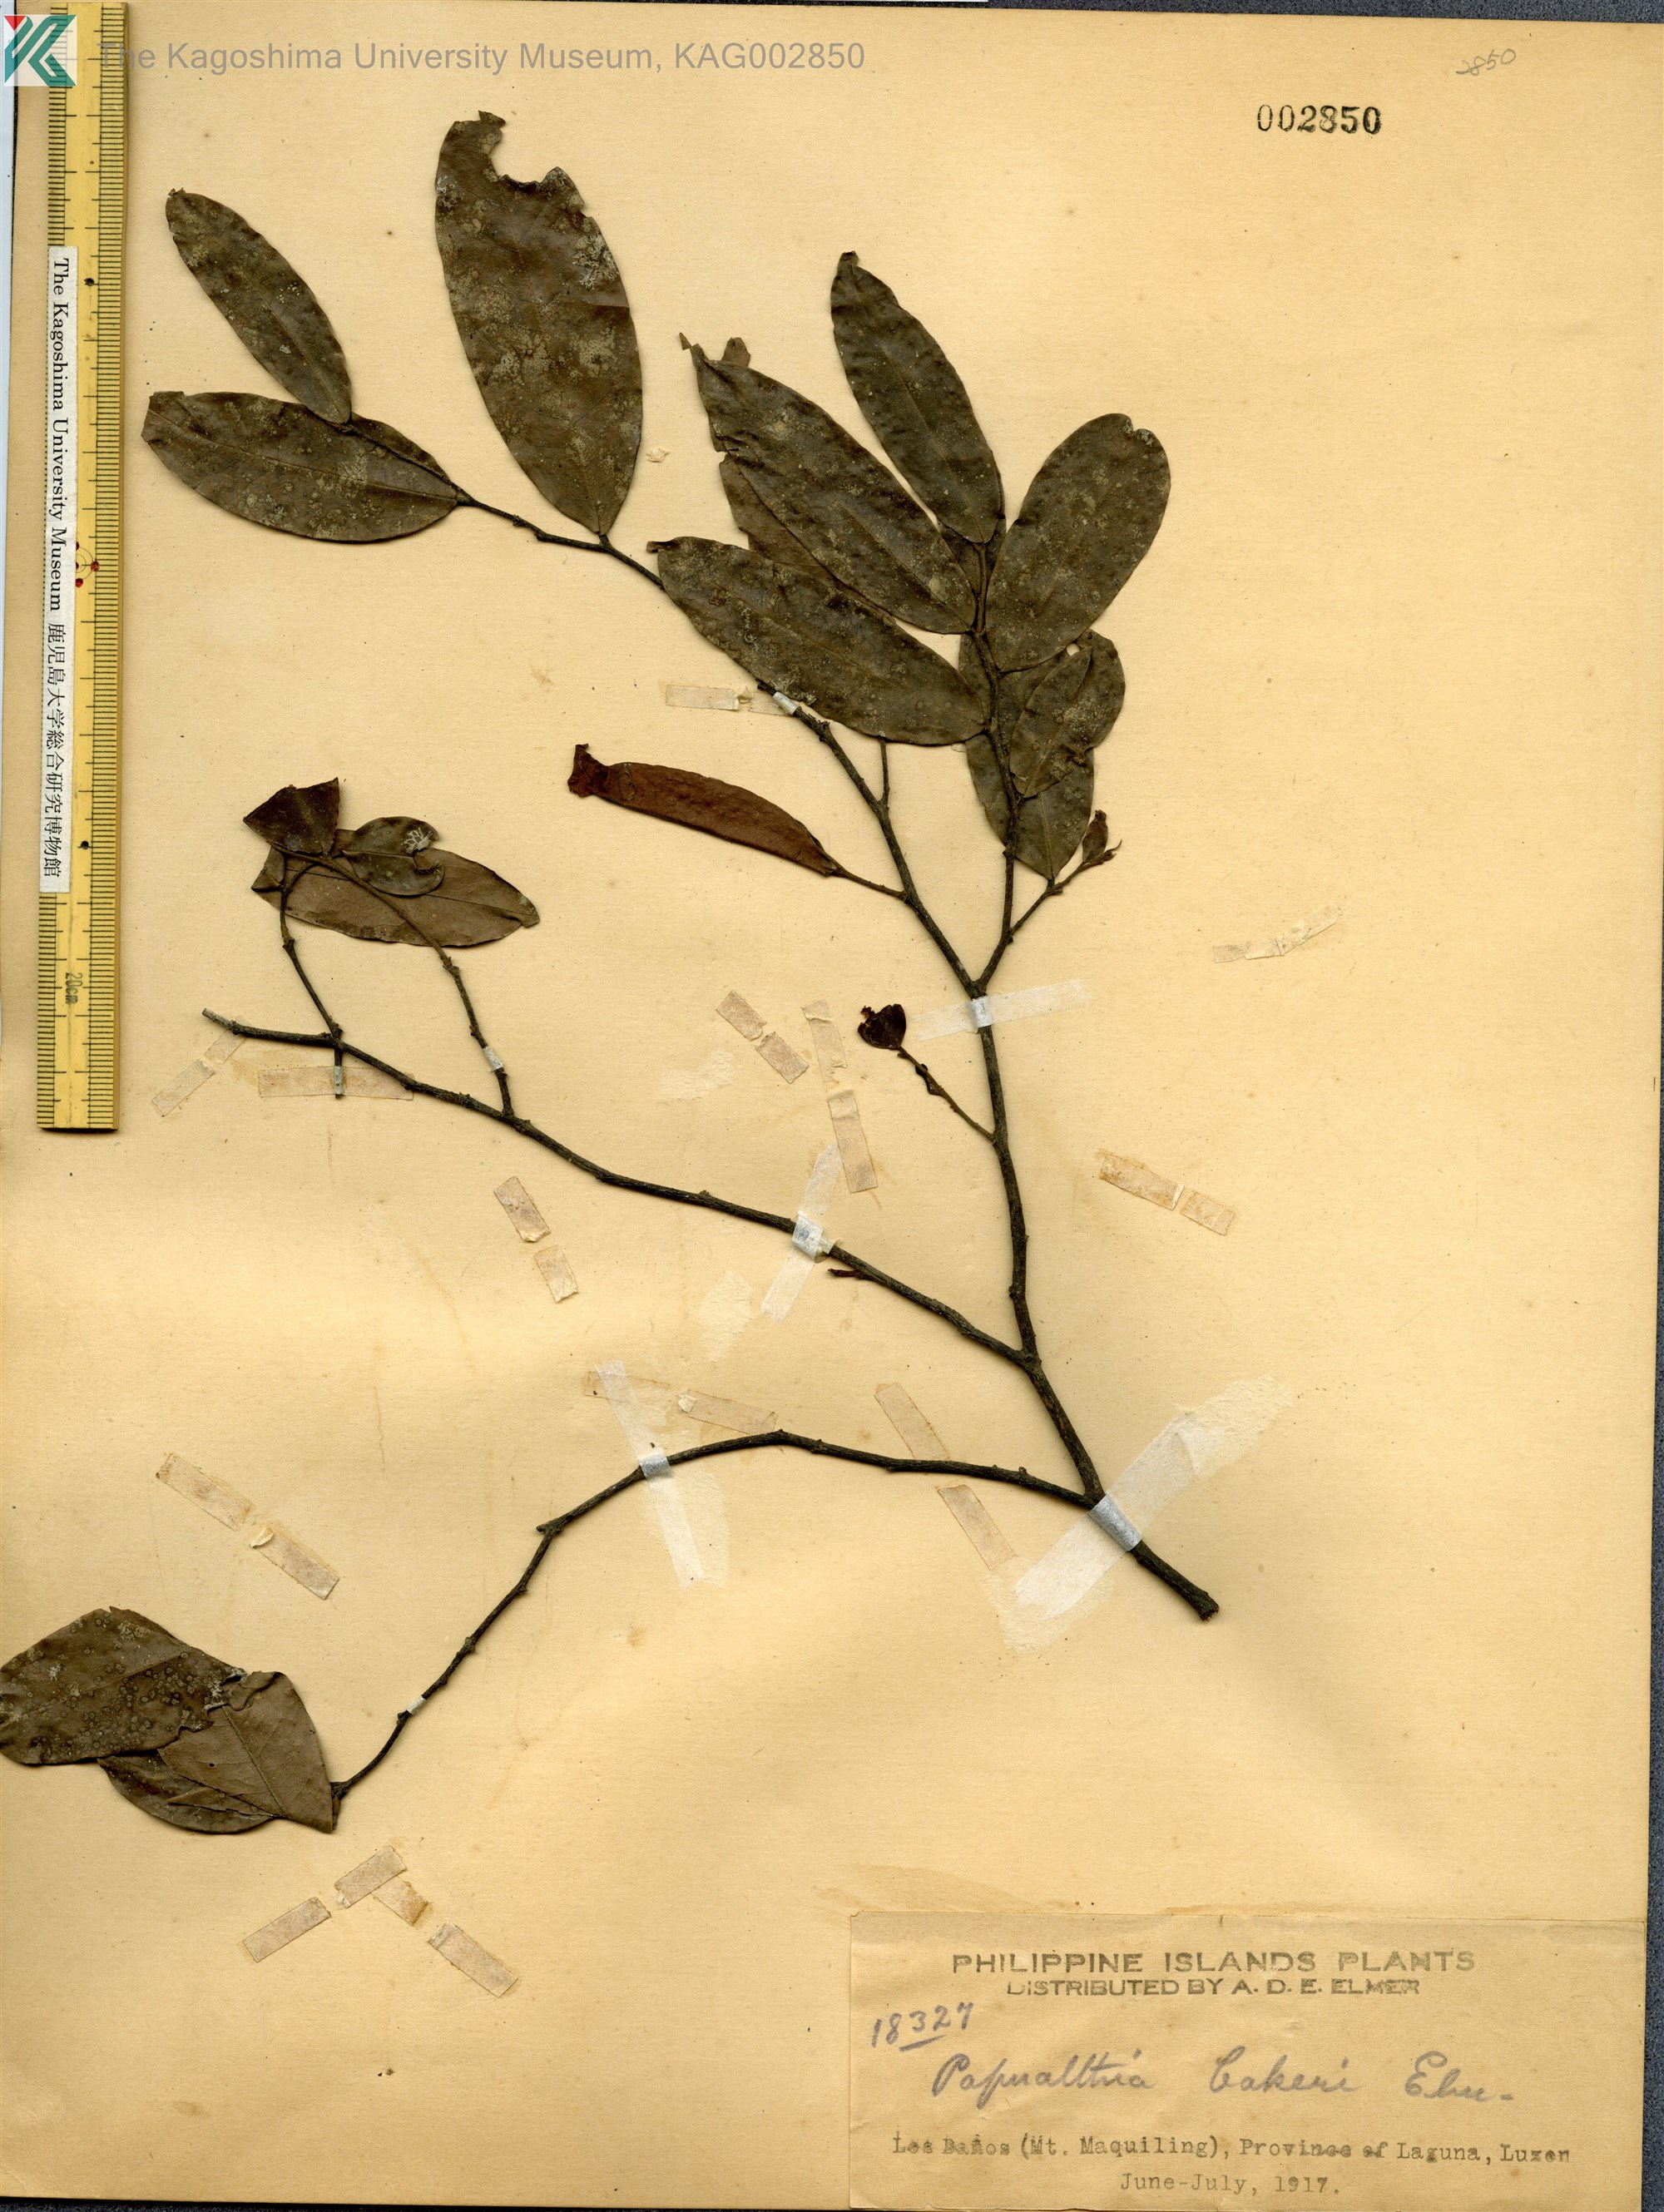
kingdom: Plantae
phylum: Tracheophyta
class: Magnoliopsida
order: Magnoliales
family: Annonaceae
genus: Haplostichanthus
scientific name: Haplostichanthus lanceolata
